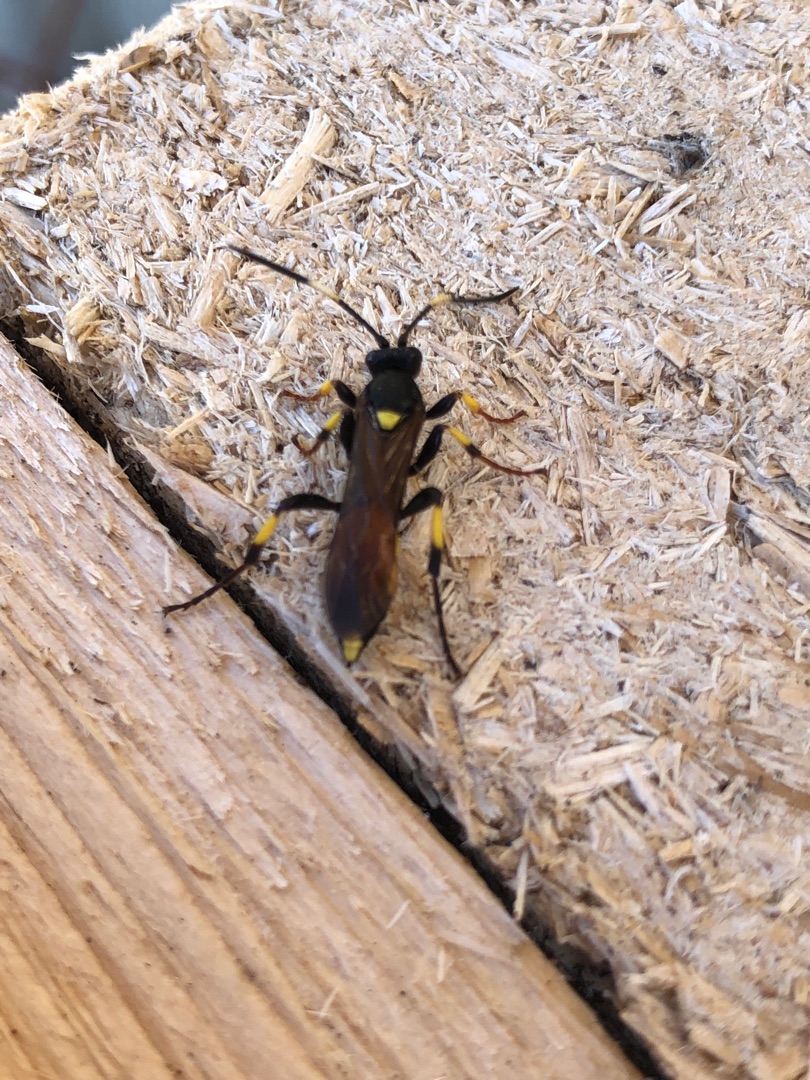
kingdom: Animalia
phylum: Arthropoda
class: Insecta
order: Hymenoptera
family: Ichneumonidae
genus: Ichneumon
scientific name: Ichneumon stramentor
